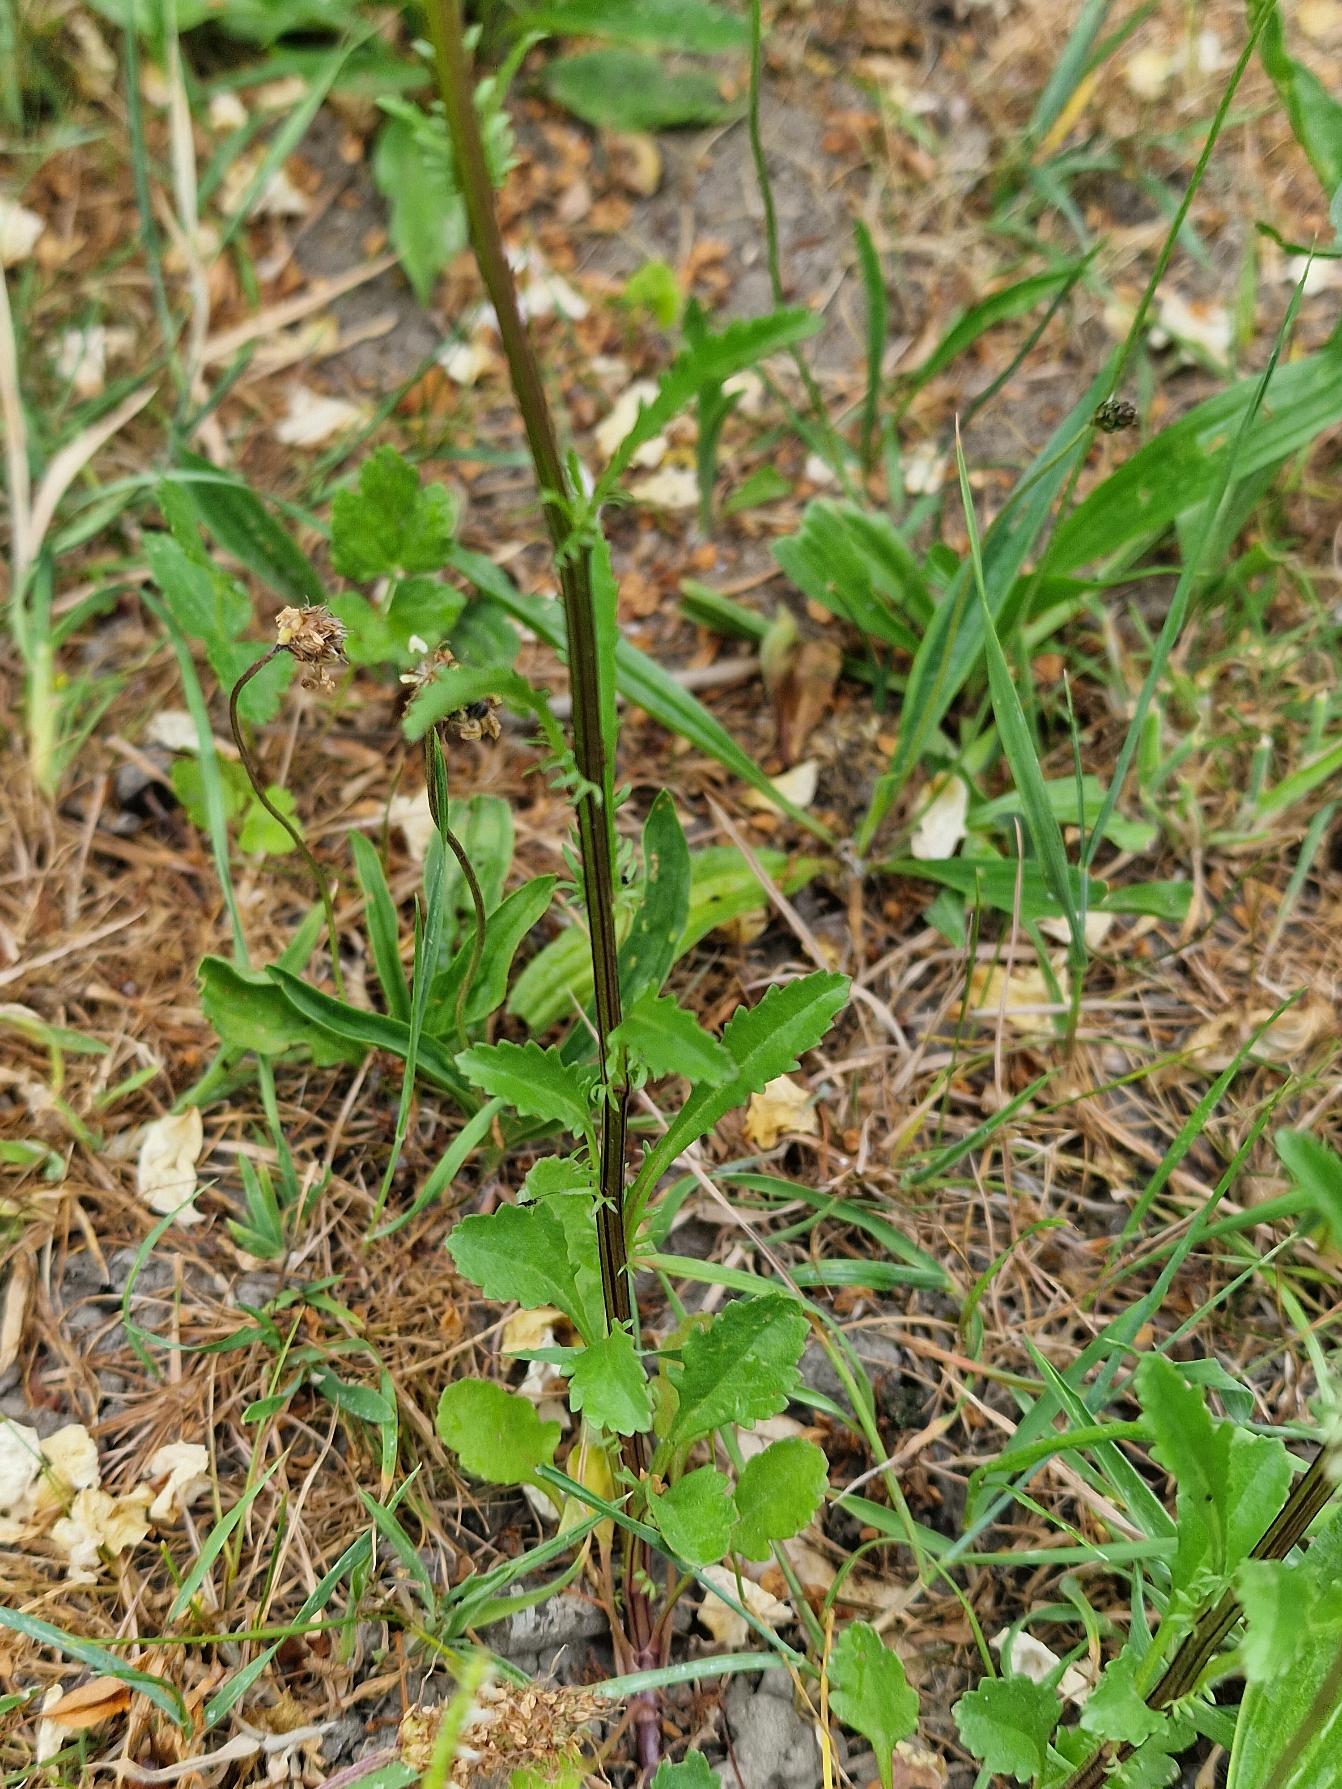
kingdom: Plantae
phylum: Tracheophyta
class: Magnoliopsida
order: Asterales
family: Asteraceae
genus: Leucanthemum
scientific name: Leucanthemum vulgare
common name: Hvid okseøje
